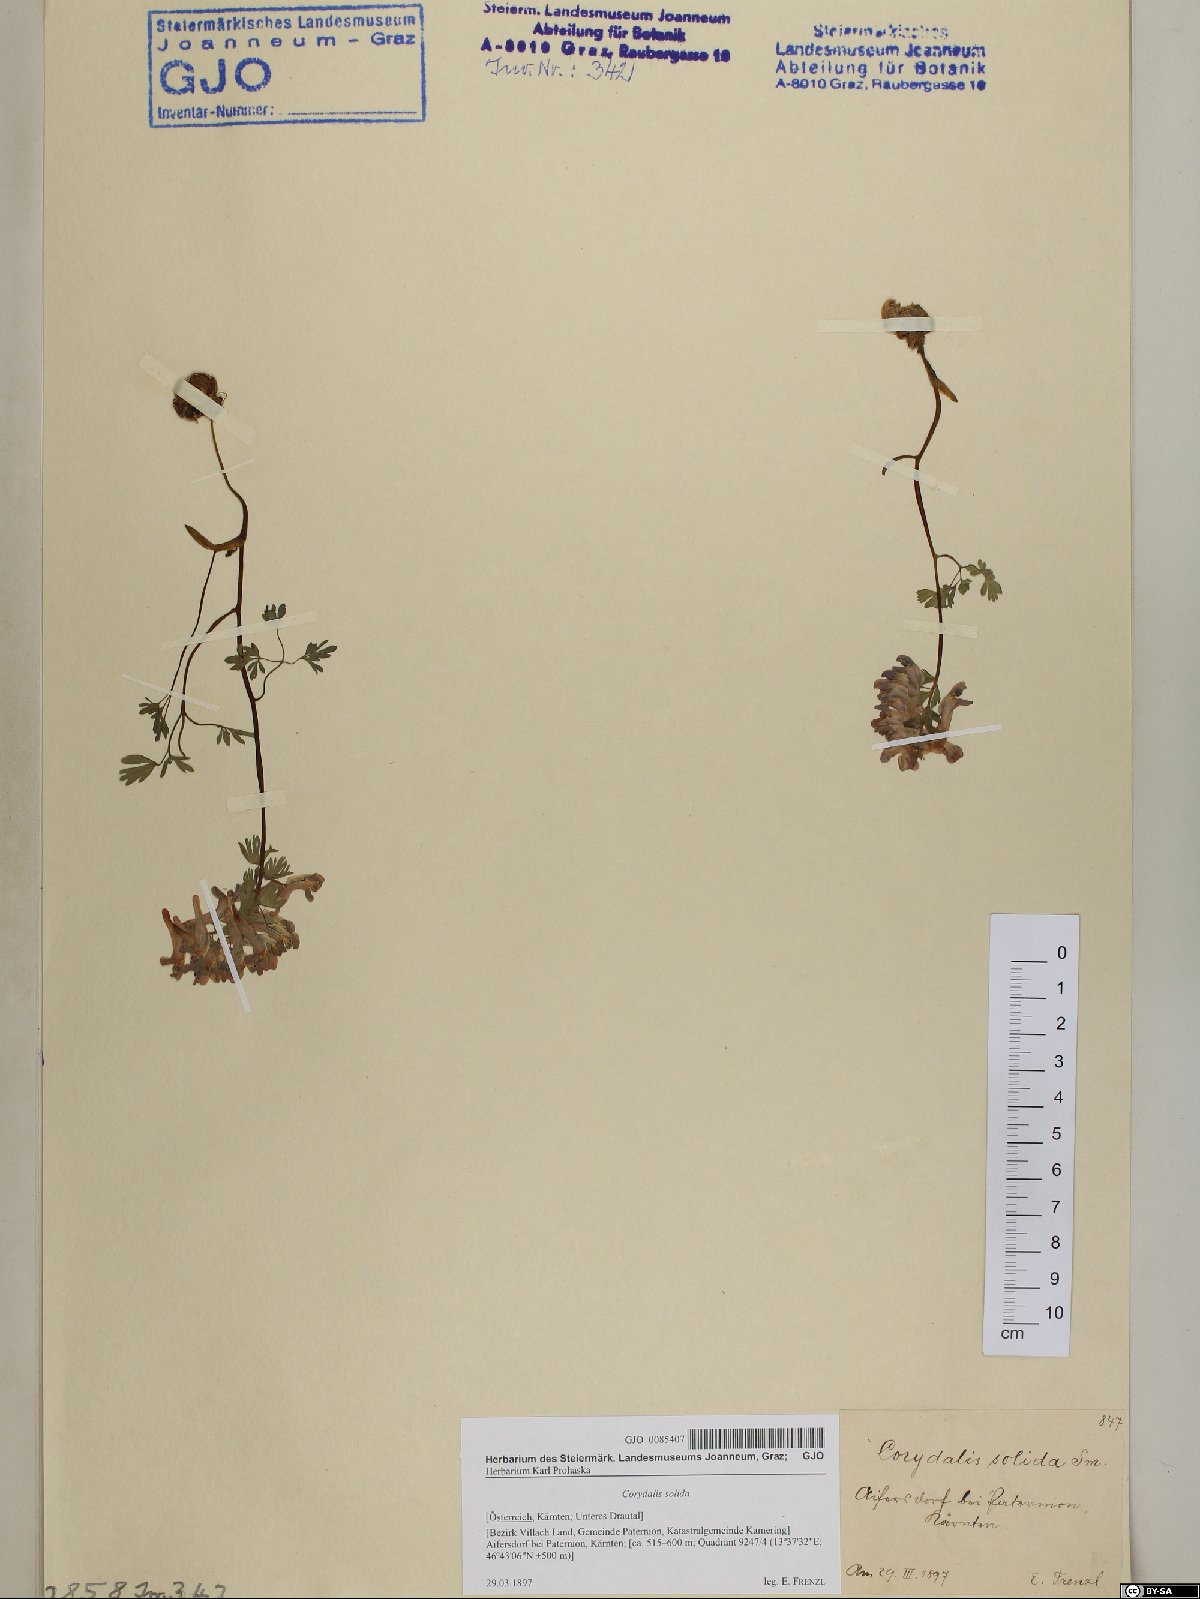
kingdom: Plantae
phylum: Tracheophyta
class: Magnoliopsida
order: Ranunculales
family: Papaveraceae
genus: Corydalis
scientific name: Corydalis solida
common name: Bird-in-a-bush
